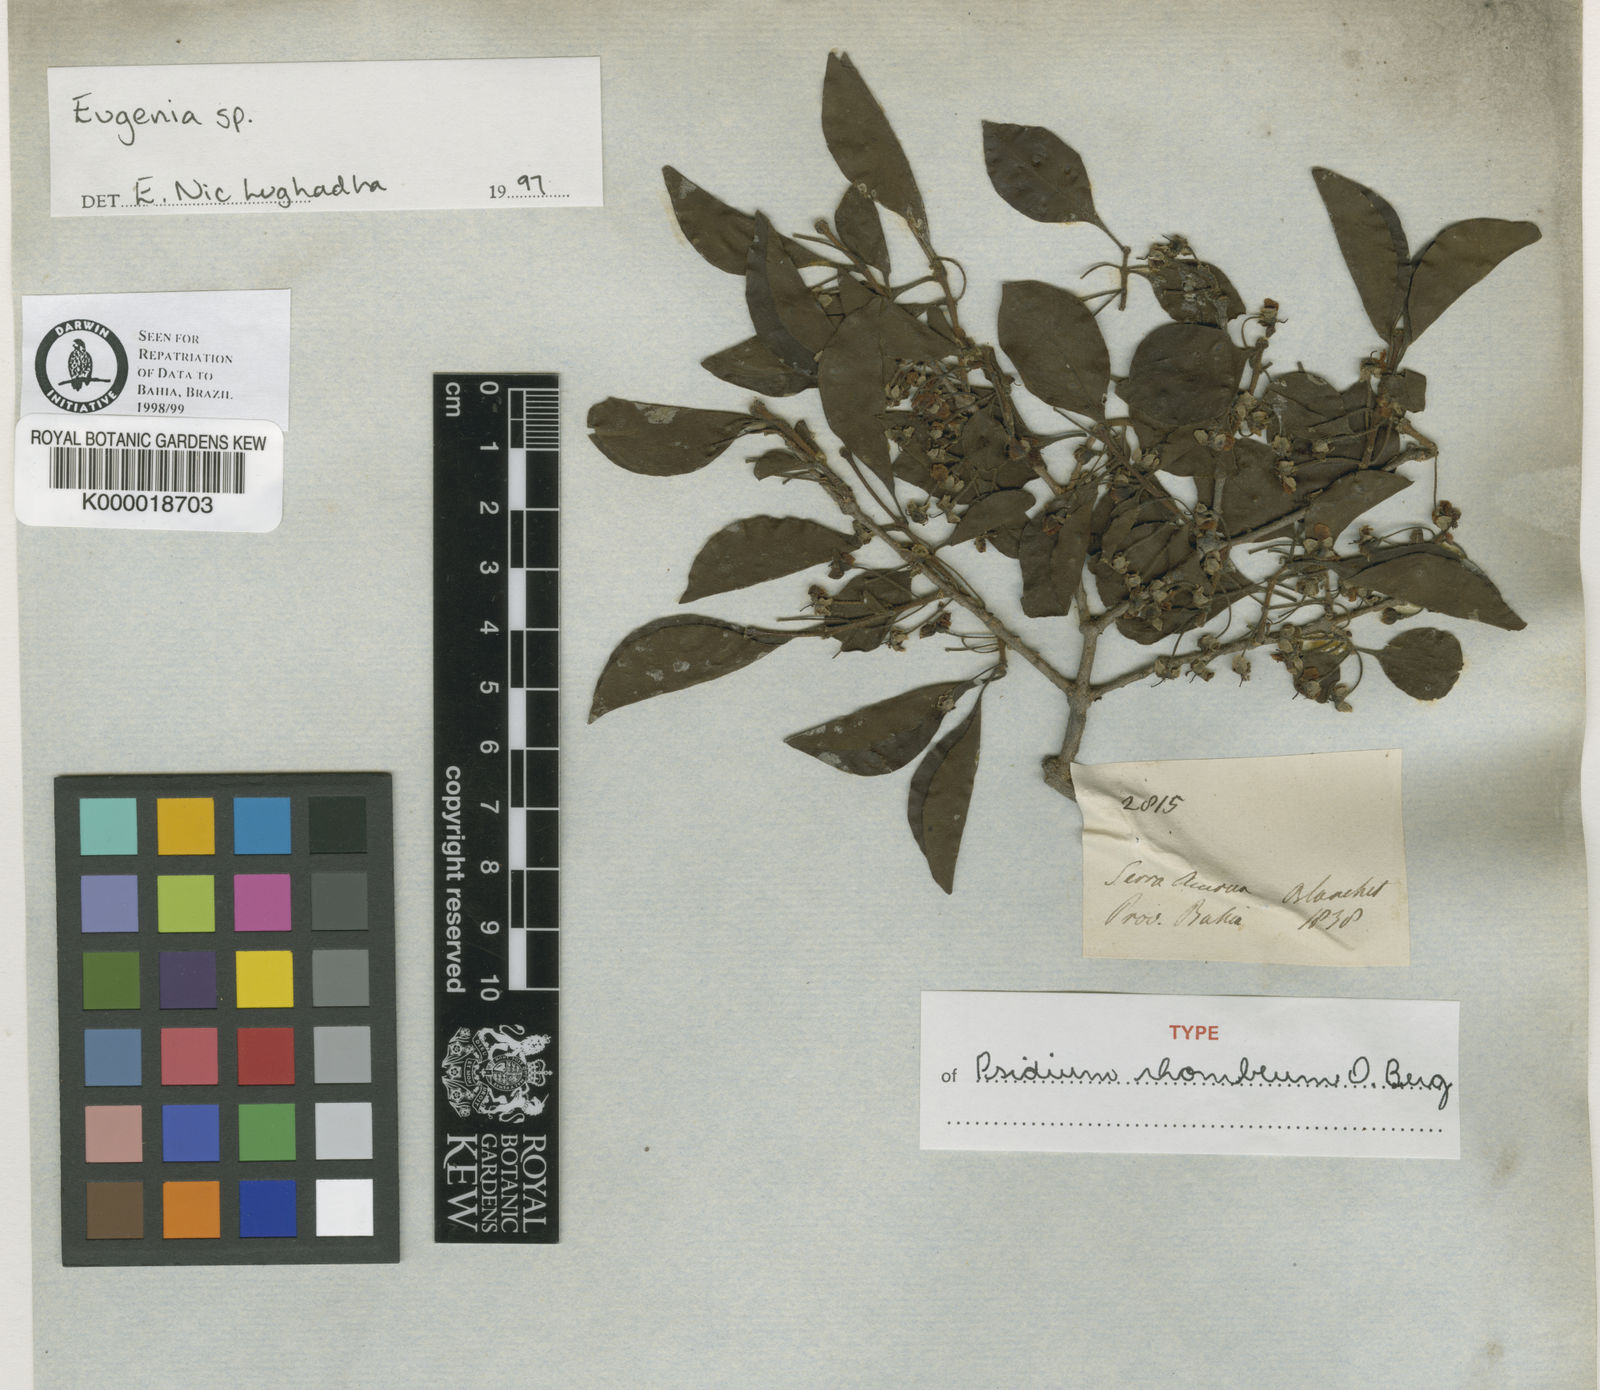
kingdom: Plantae
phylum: Tracheophyta
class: Magnoliopsida
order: Myrtales
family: Myrtaceae
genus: Psidium
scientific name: Psidium rhombeum
